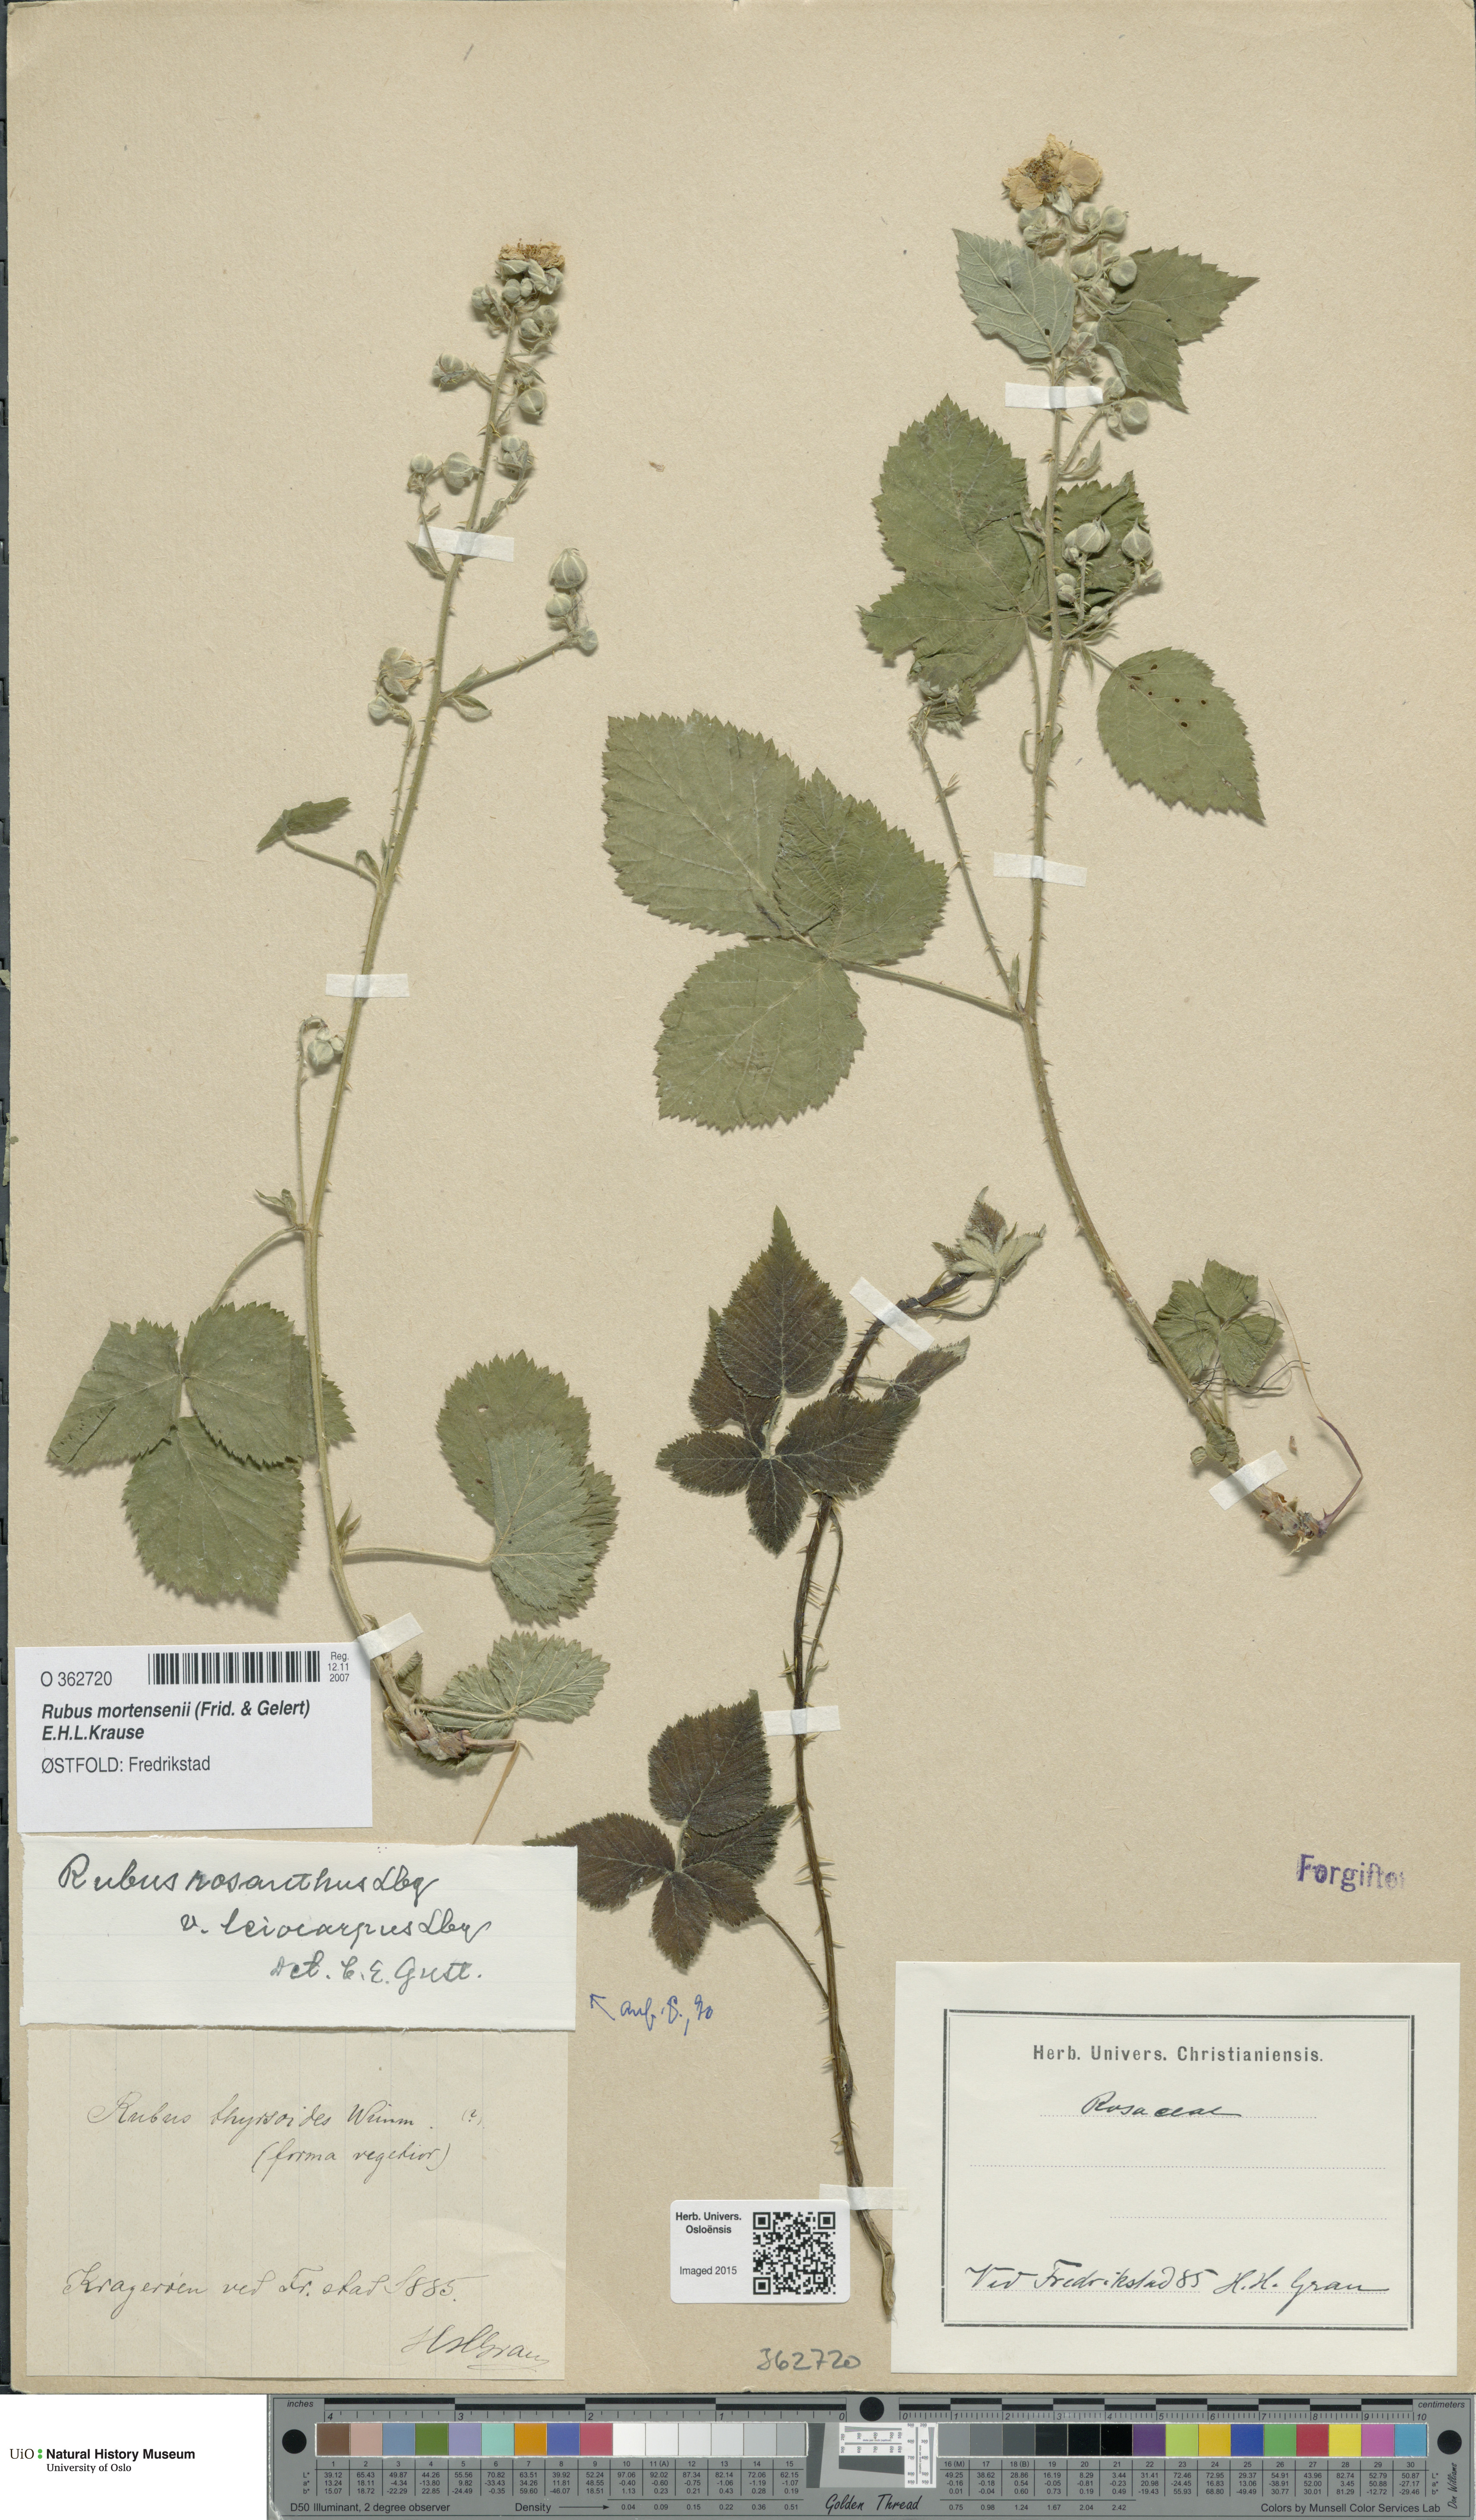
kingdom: Plantae
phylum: Tracheophyta
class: Magnoliopsida
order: Rosales
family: Rosaceae
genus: Rubus
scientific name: Rubus mortensenii
